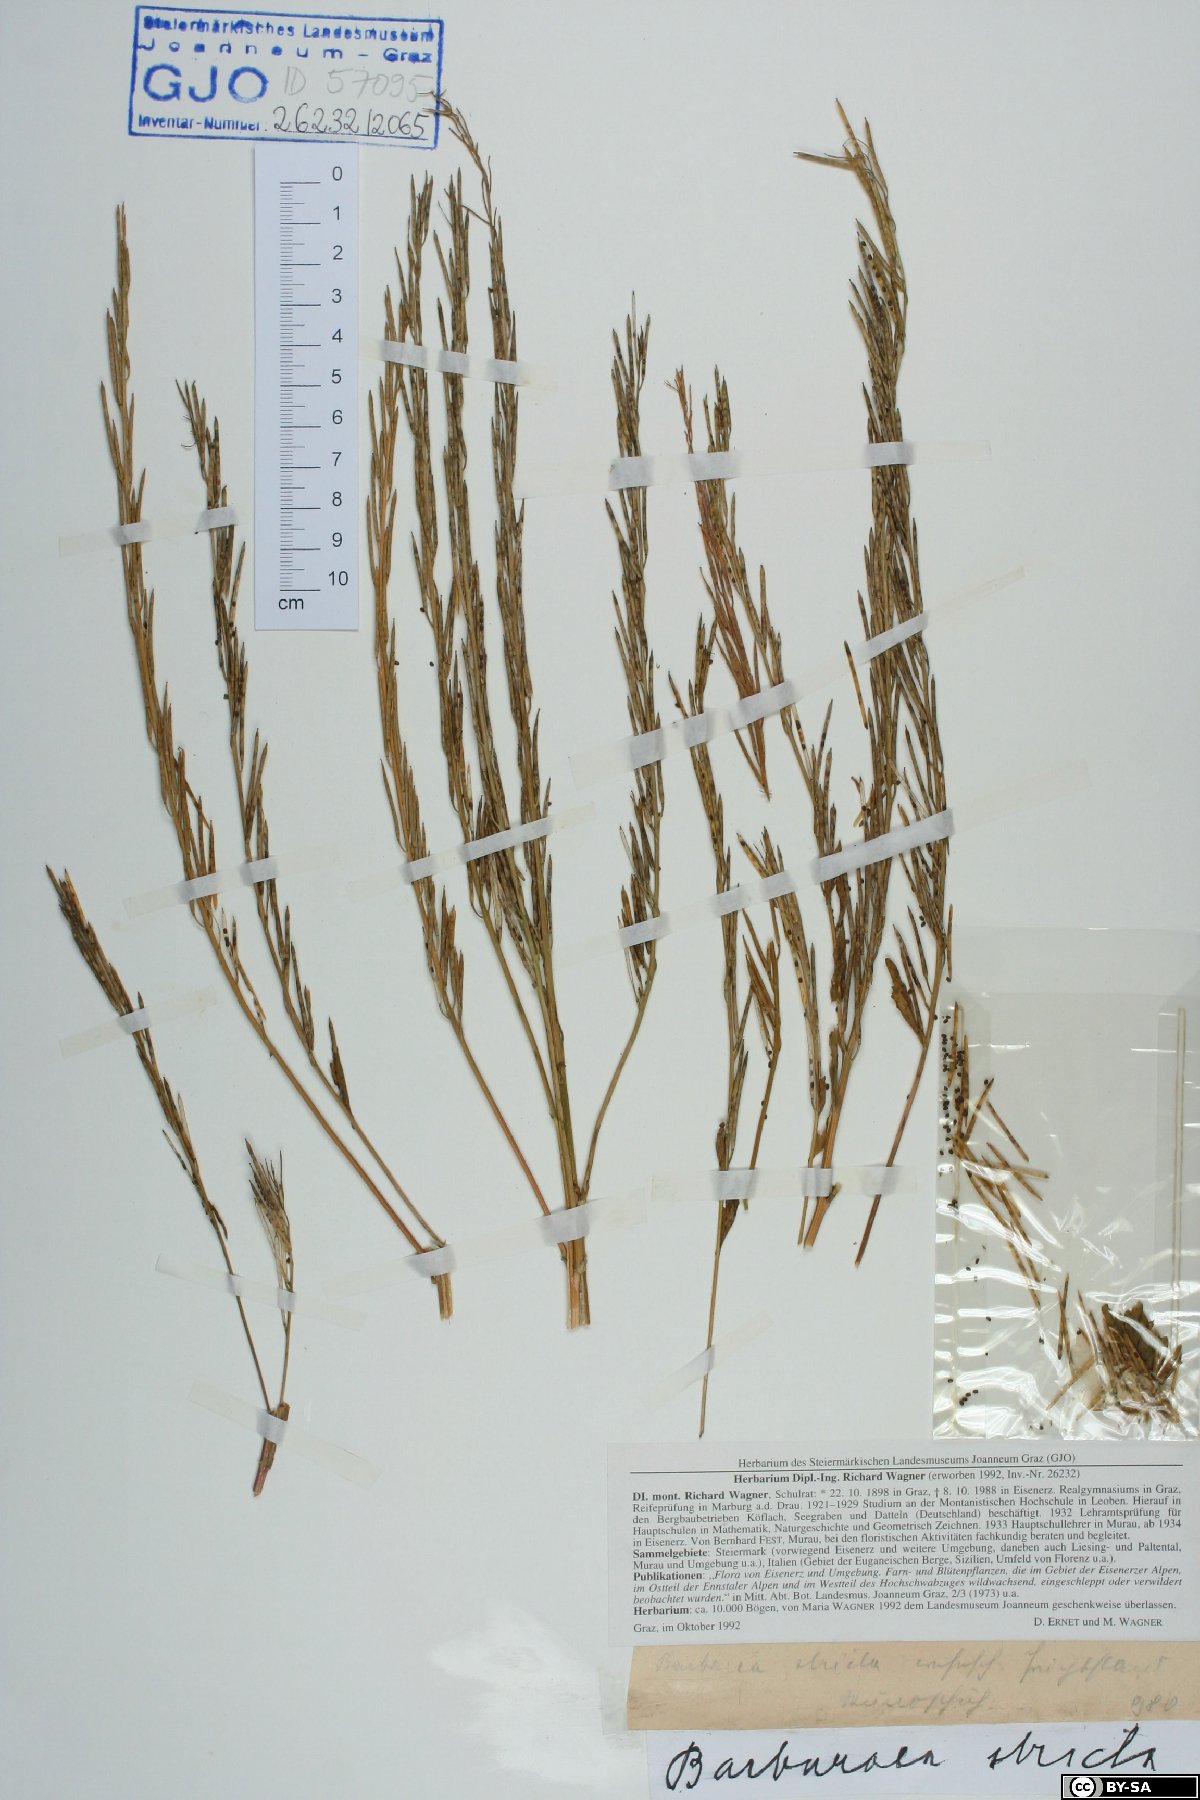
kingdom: Plantae
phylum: Tracheophyta
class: Magnoliopsida
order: Brassicales
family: Brassicaceae
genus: Barbarea
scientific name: Barbarea stricta
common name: Small-flowered winter-cress
